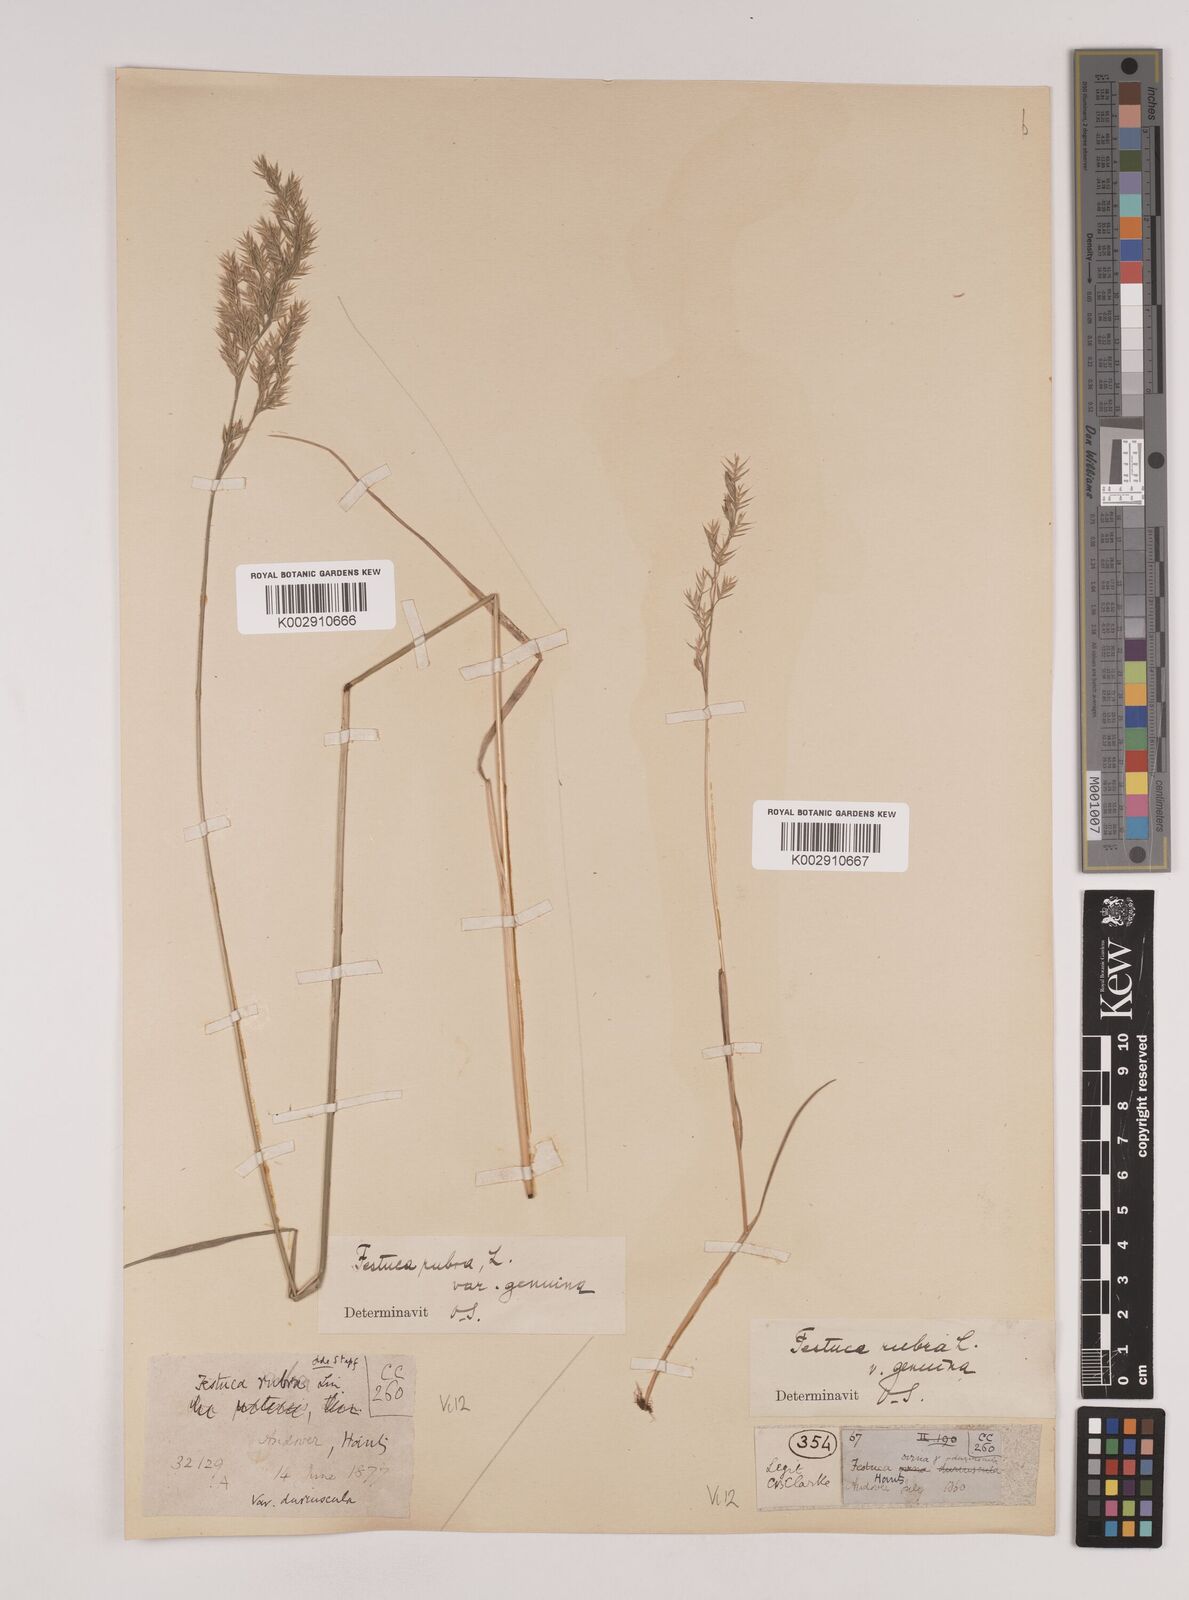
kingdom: Plantae
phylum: Tracheophyta
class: Liliopsida
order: Poales
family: Poaceae
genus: Festuca
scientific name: Festuca rubra
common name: Red fescue
